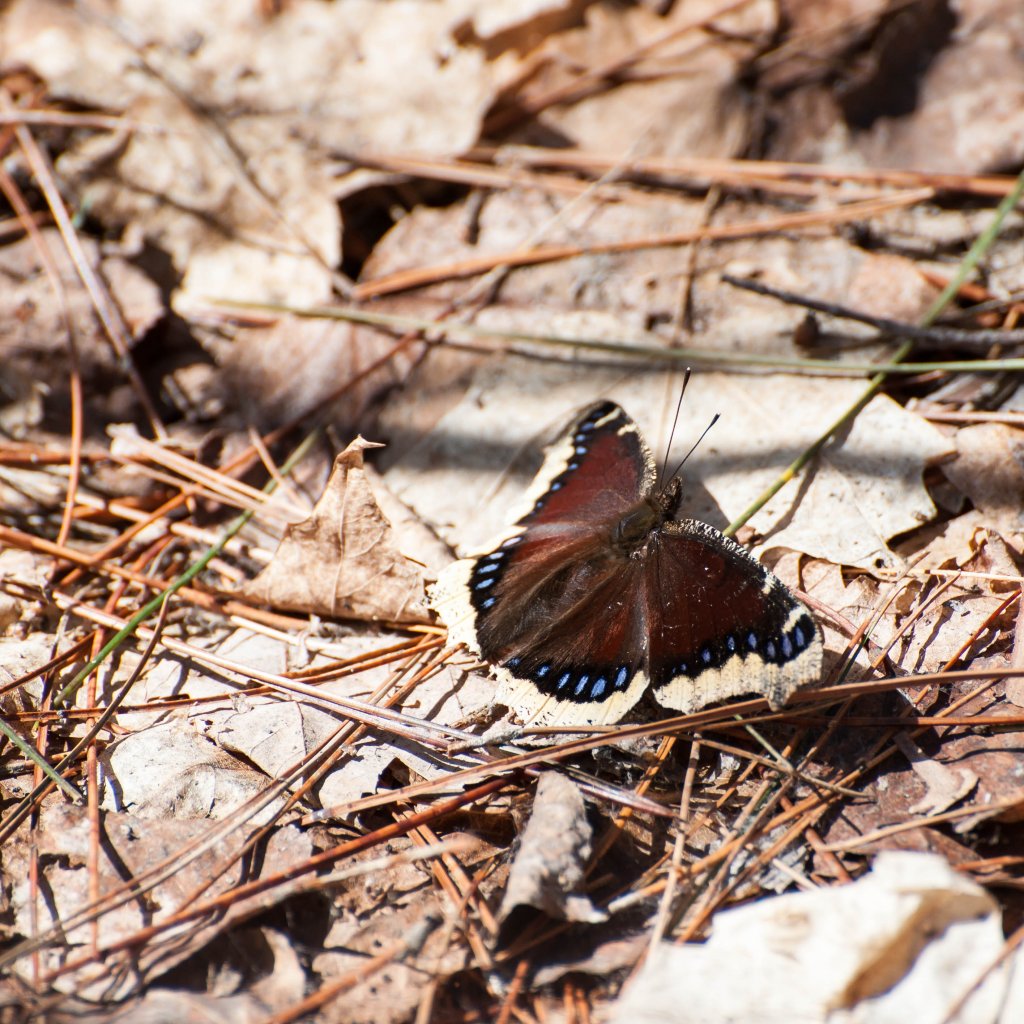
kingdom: Animalia
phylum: Arthropoda
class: Insecta
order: Lepidoptera
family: Nymphalidae
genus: Nymphalis
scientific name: Nymphalis antiopa
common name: Mourning Cloak
